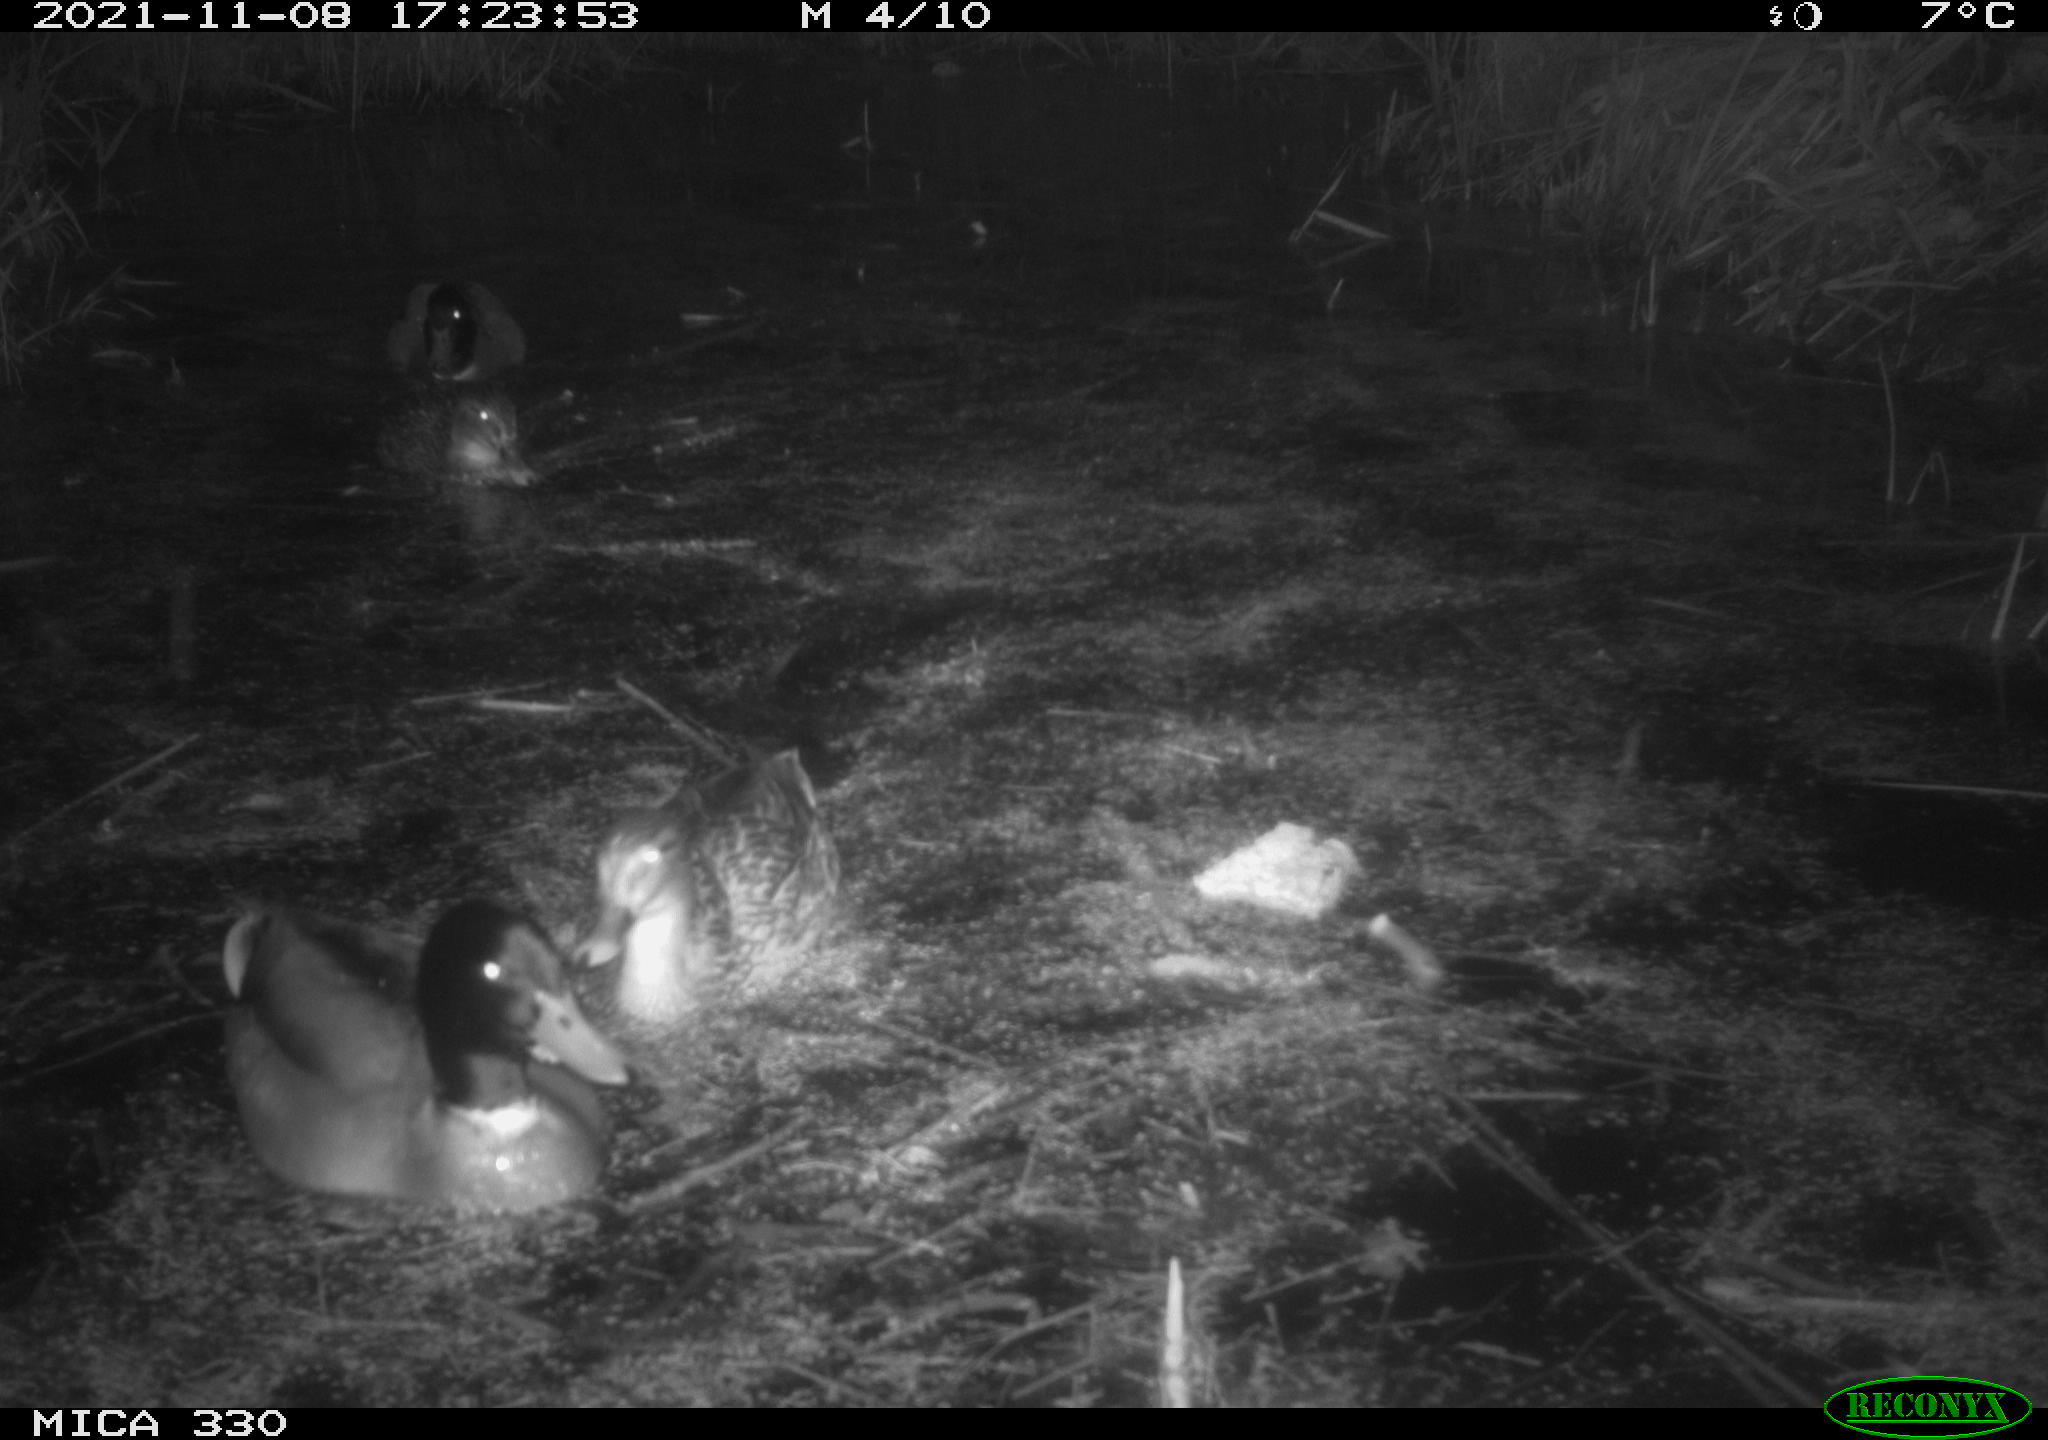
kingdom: Animalia
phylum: Chordata
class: Aves
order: Anseriformes
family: Anatidae
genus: Anas
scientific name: Anas platyrhynchos
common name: Mallard
